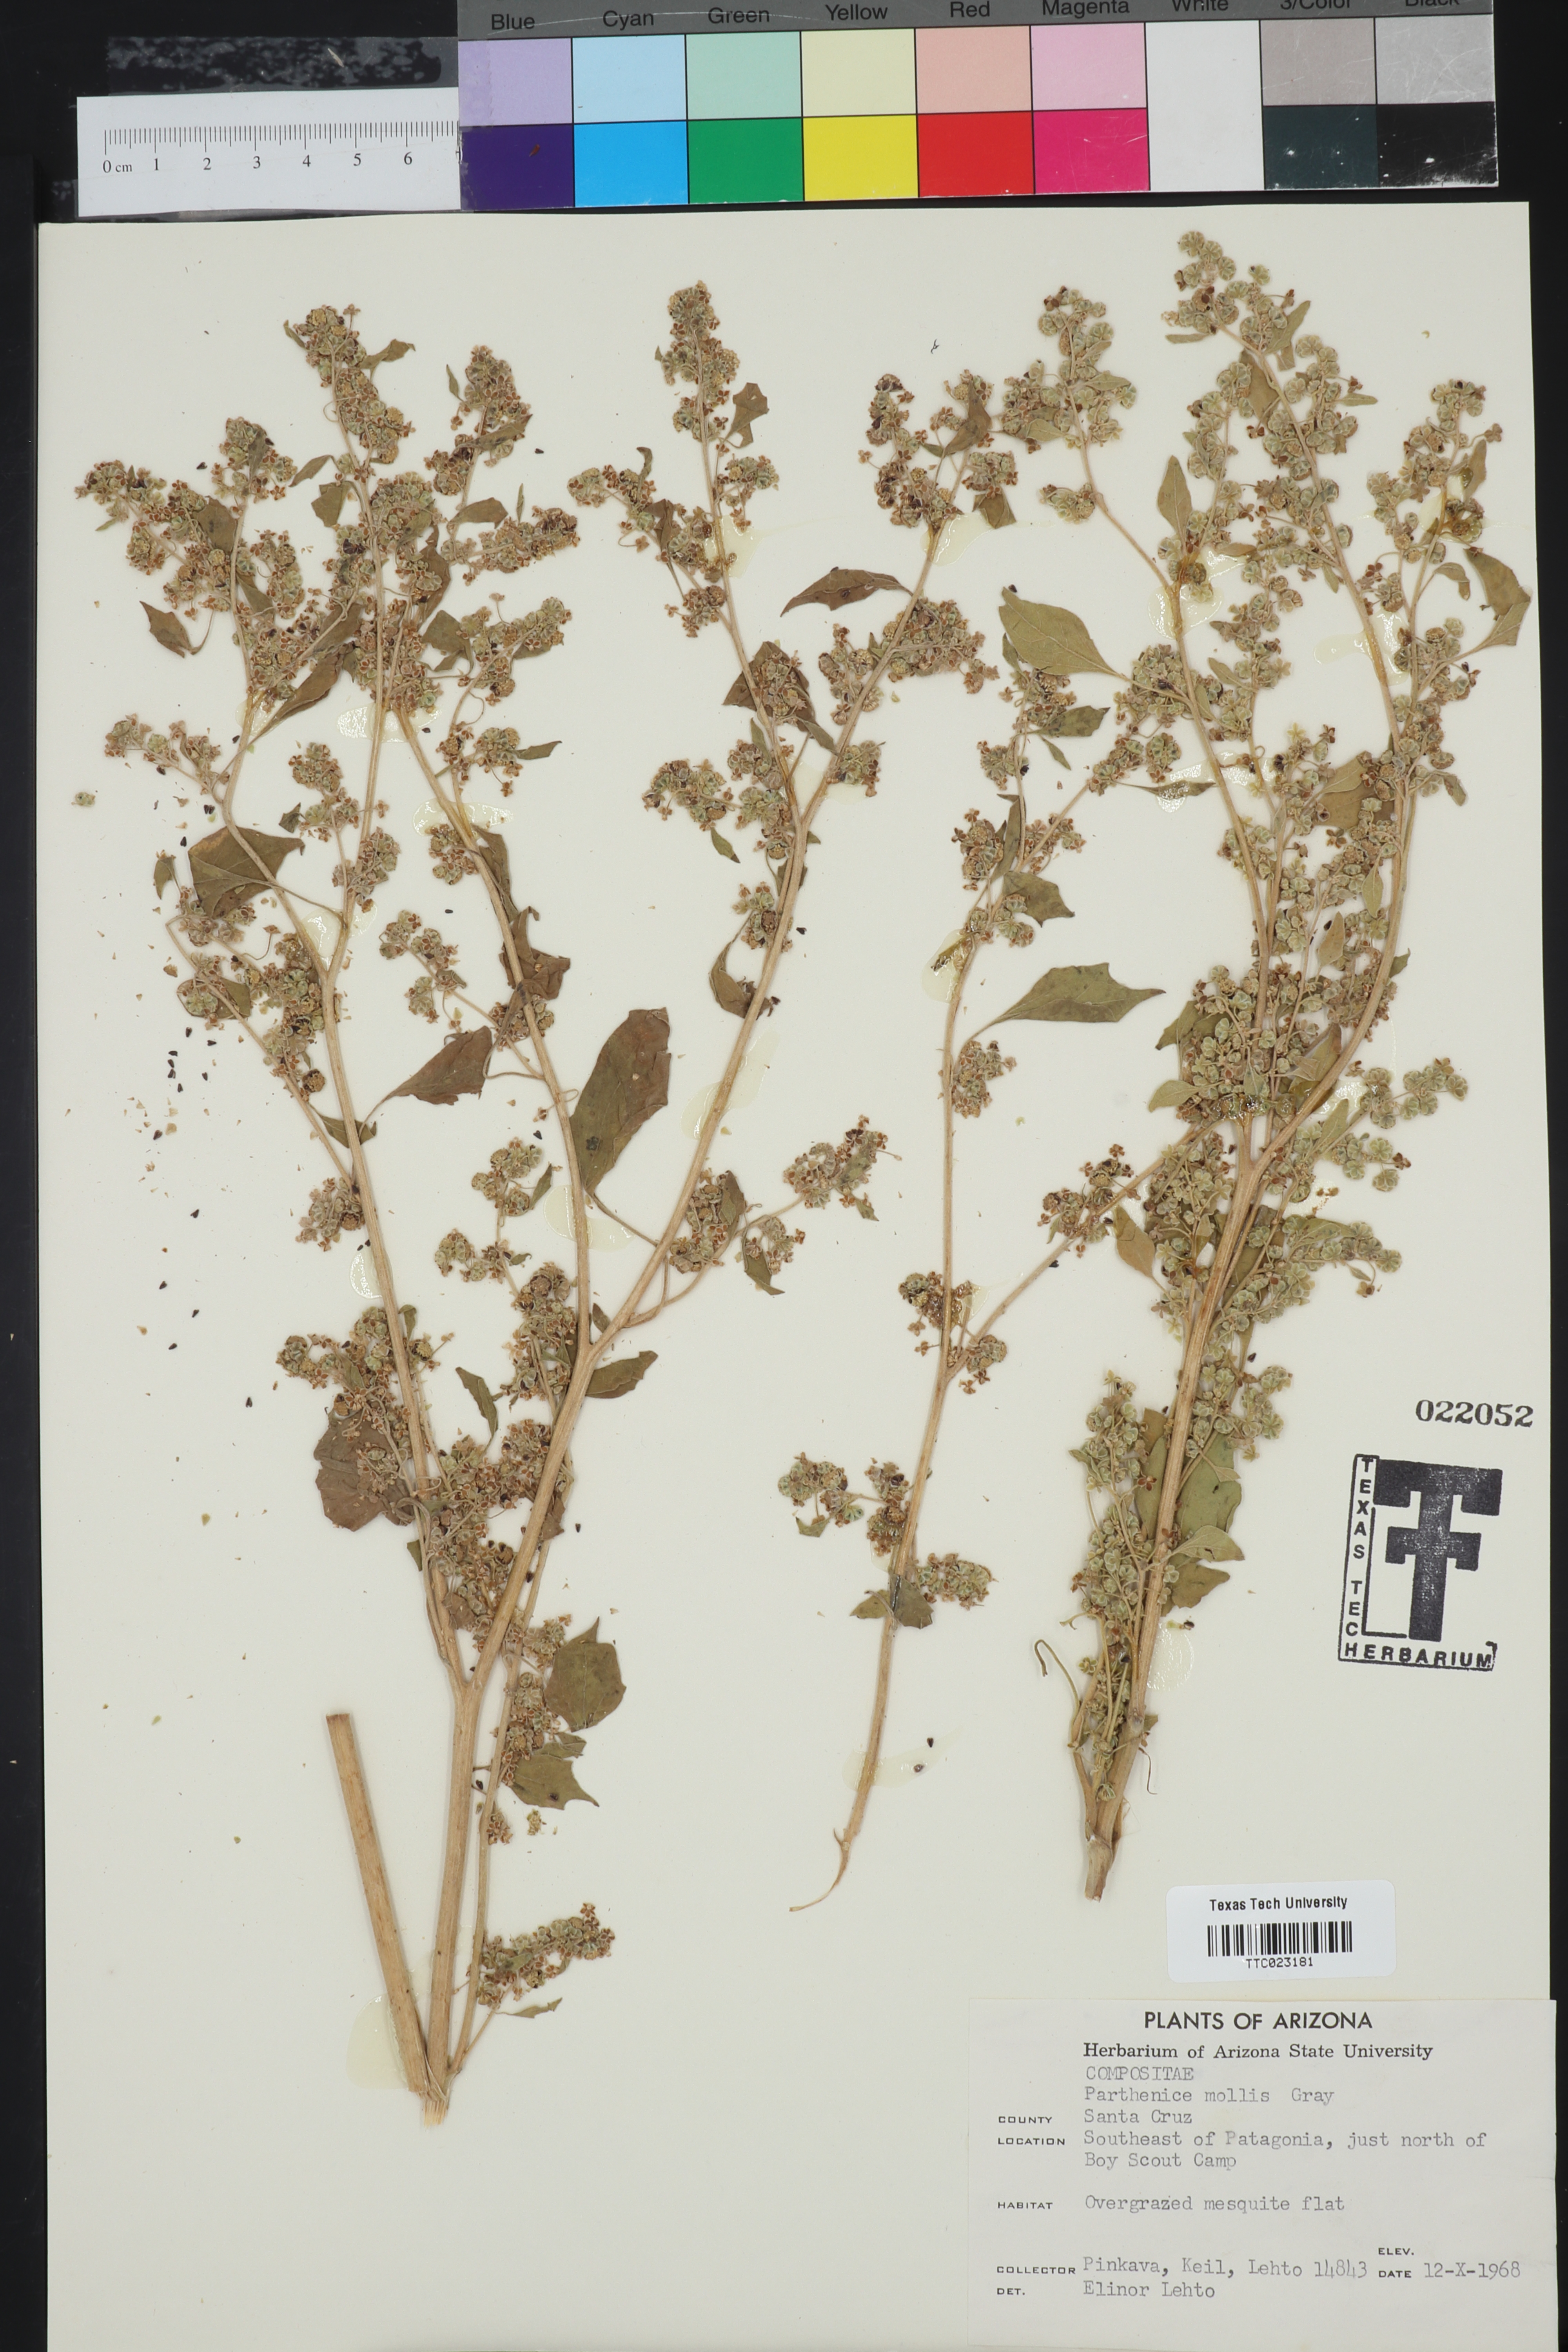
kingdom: Plantae
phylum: Tracheophyta
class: Magnoliopsida
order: Asterales
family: Asteraceae
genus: Parthenice
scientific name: Parthenice mollis
